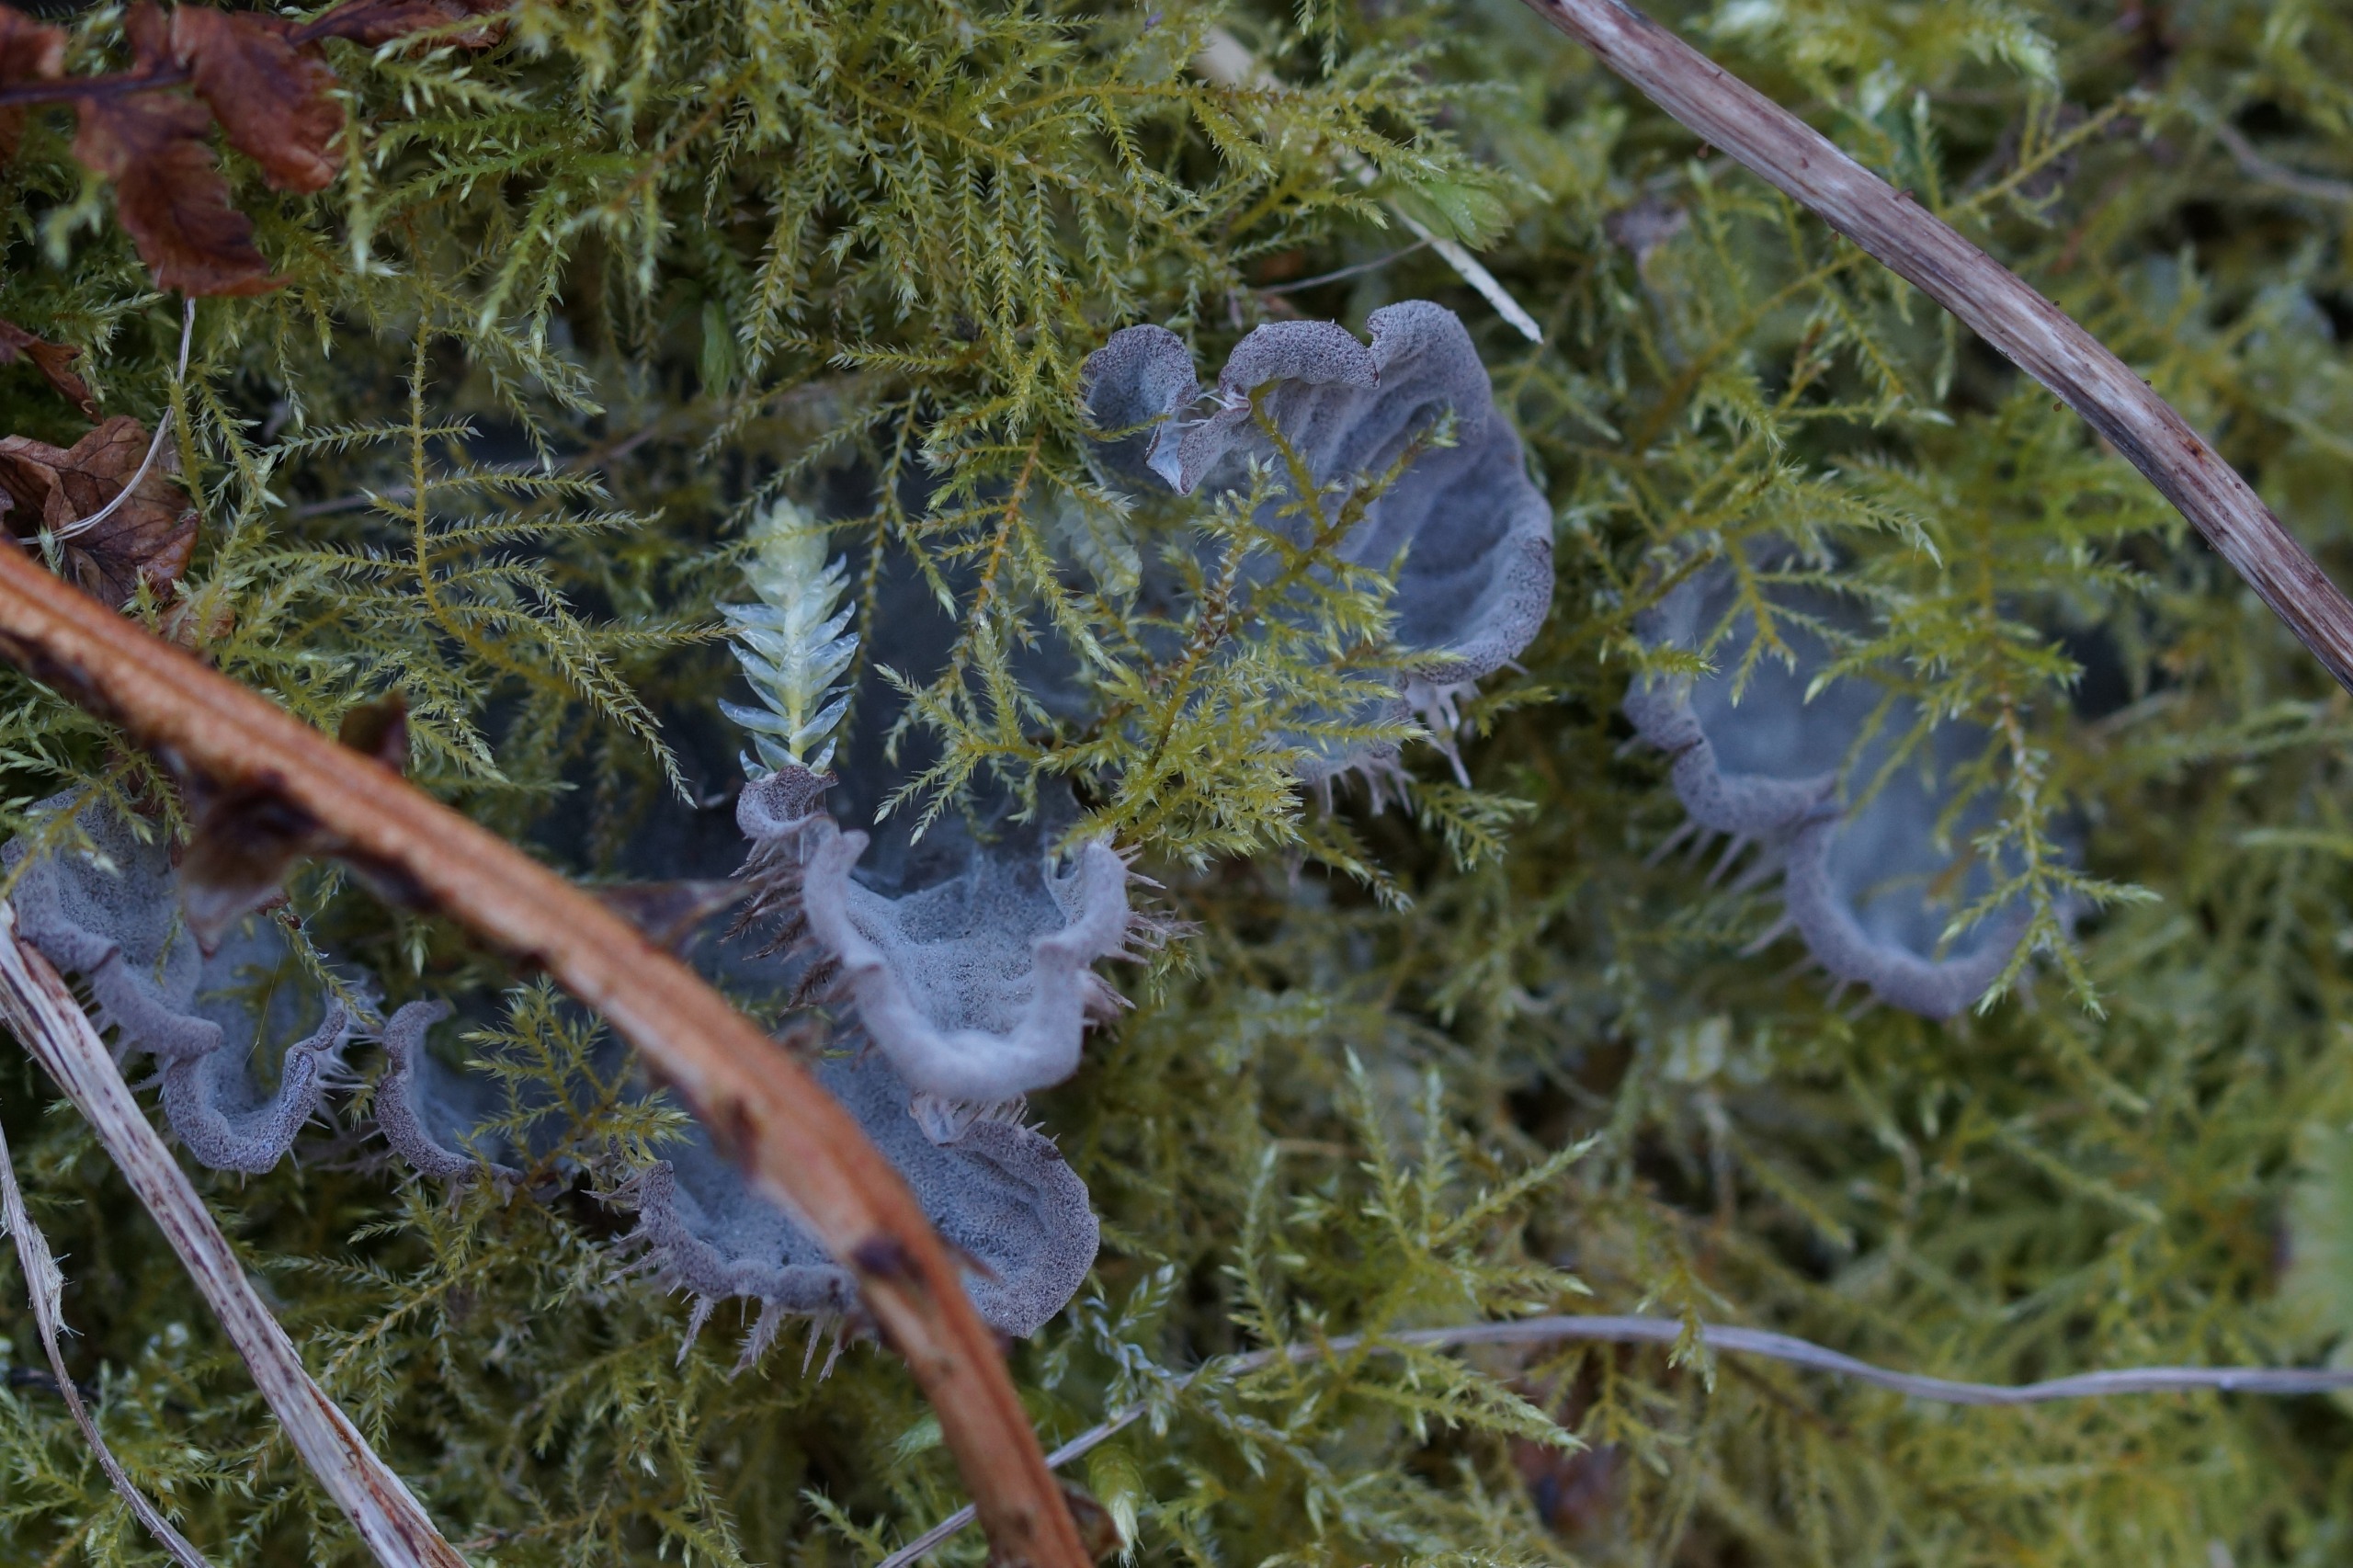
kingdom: Fungi
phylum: Ascomycota
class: Lecanoromycetes
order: Peltigerales
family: Peltigeraceae
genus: Peltigera
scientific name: Peltigera membranacea
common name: Tynd skjoldlav
